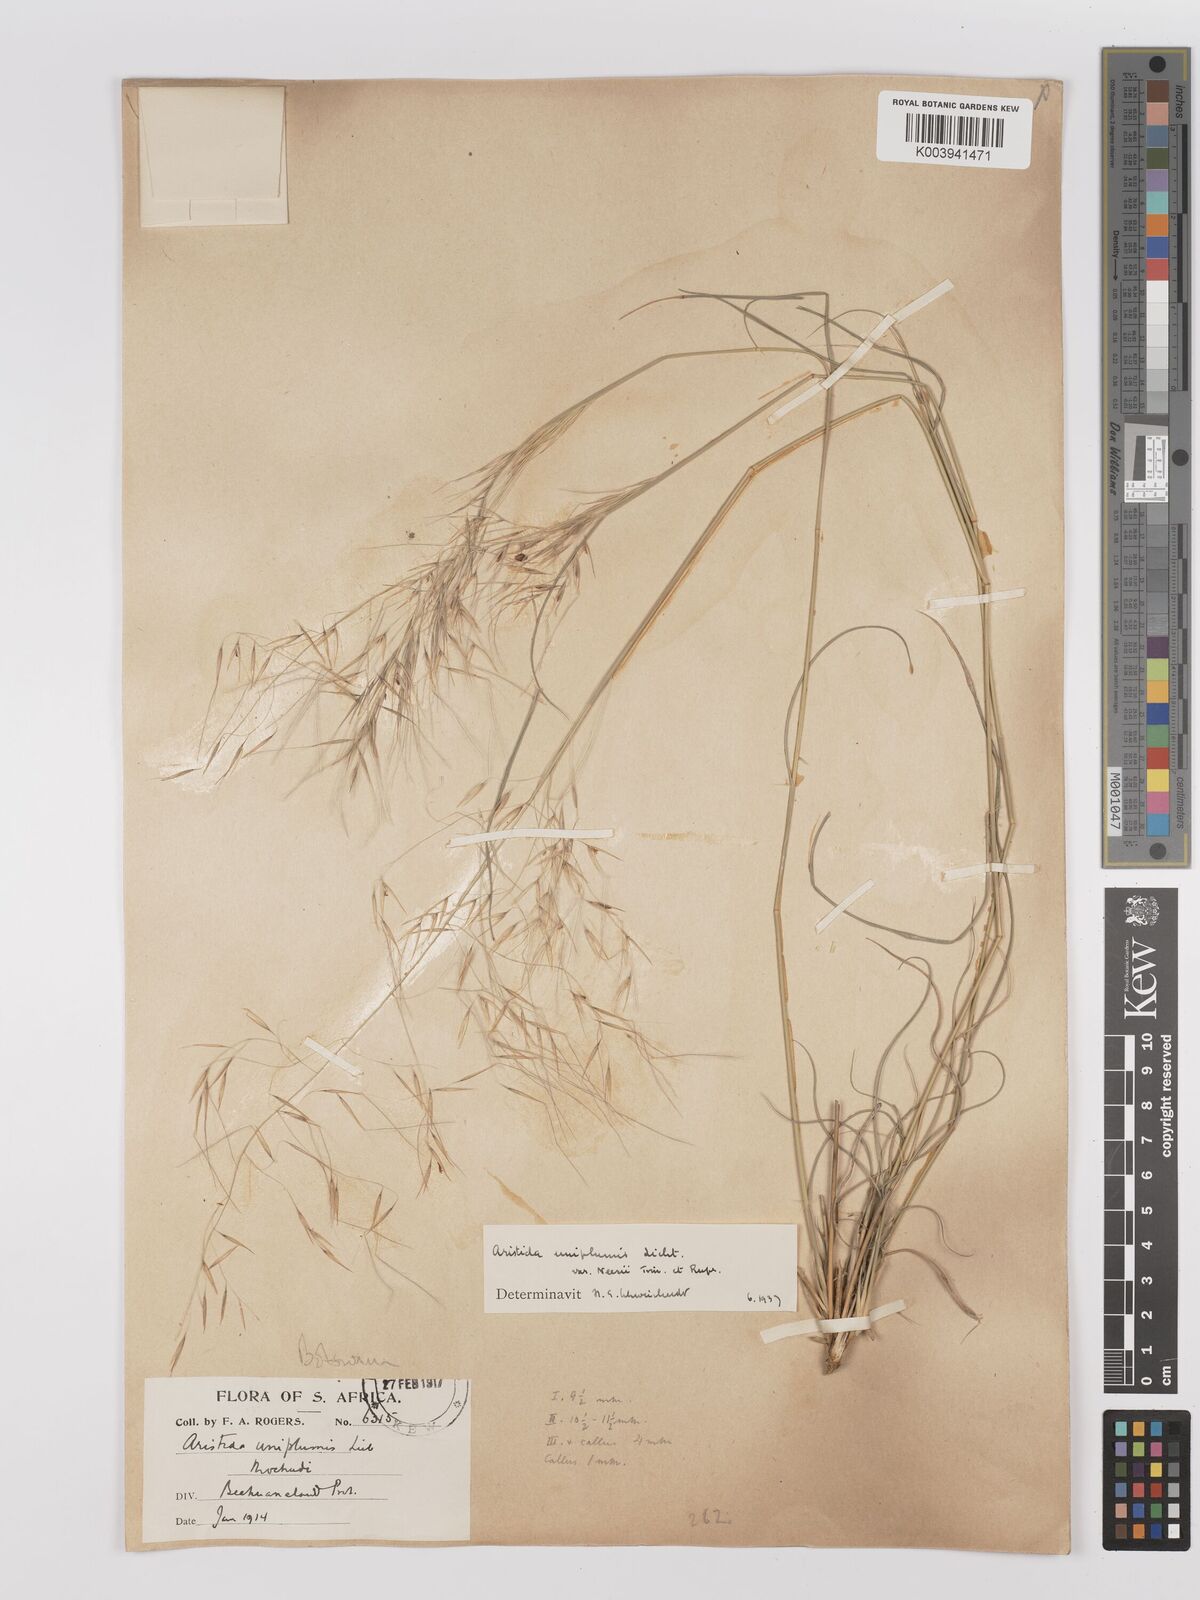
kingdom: Plantae
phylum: Tracheophyta
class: Liliopsida
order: Poales
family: Poaceae
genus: Stipagrostis
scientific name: Stipagrostis uniplumis
